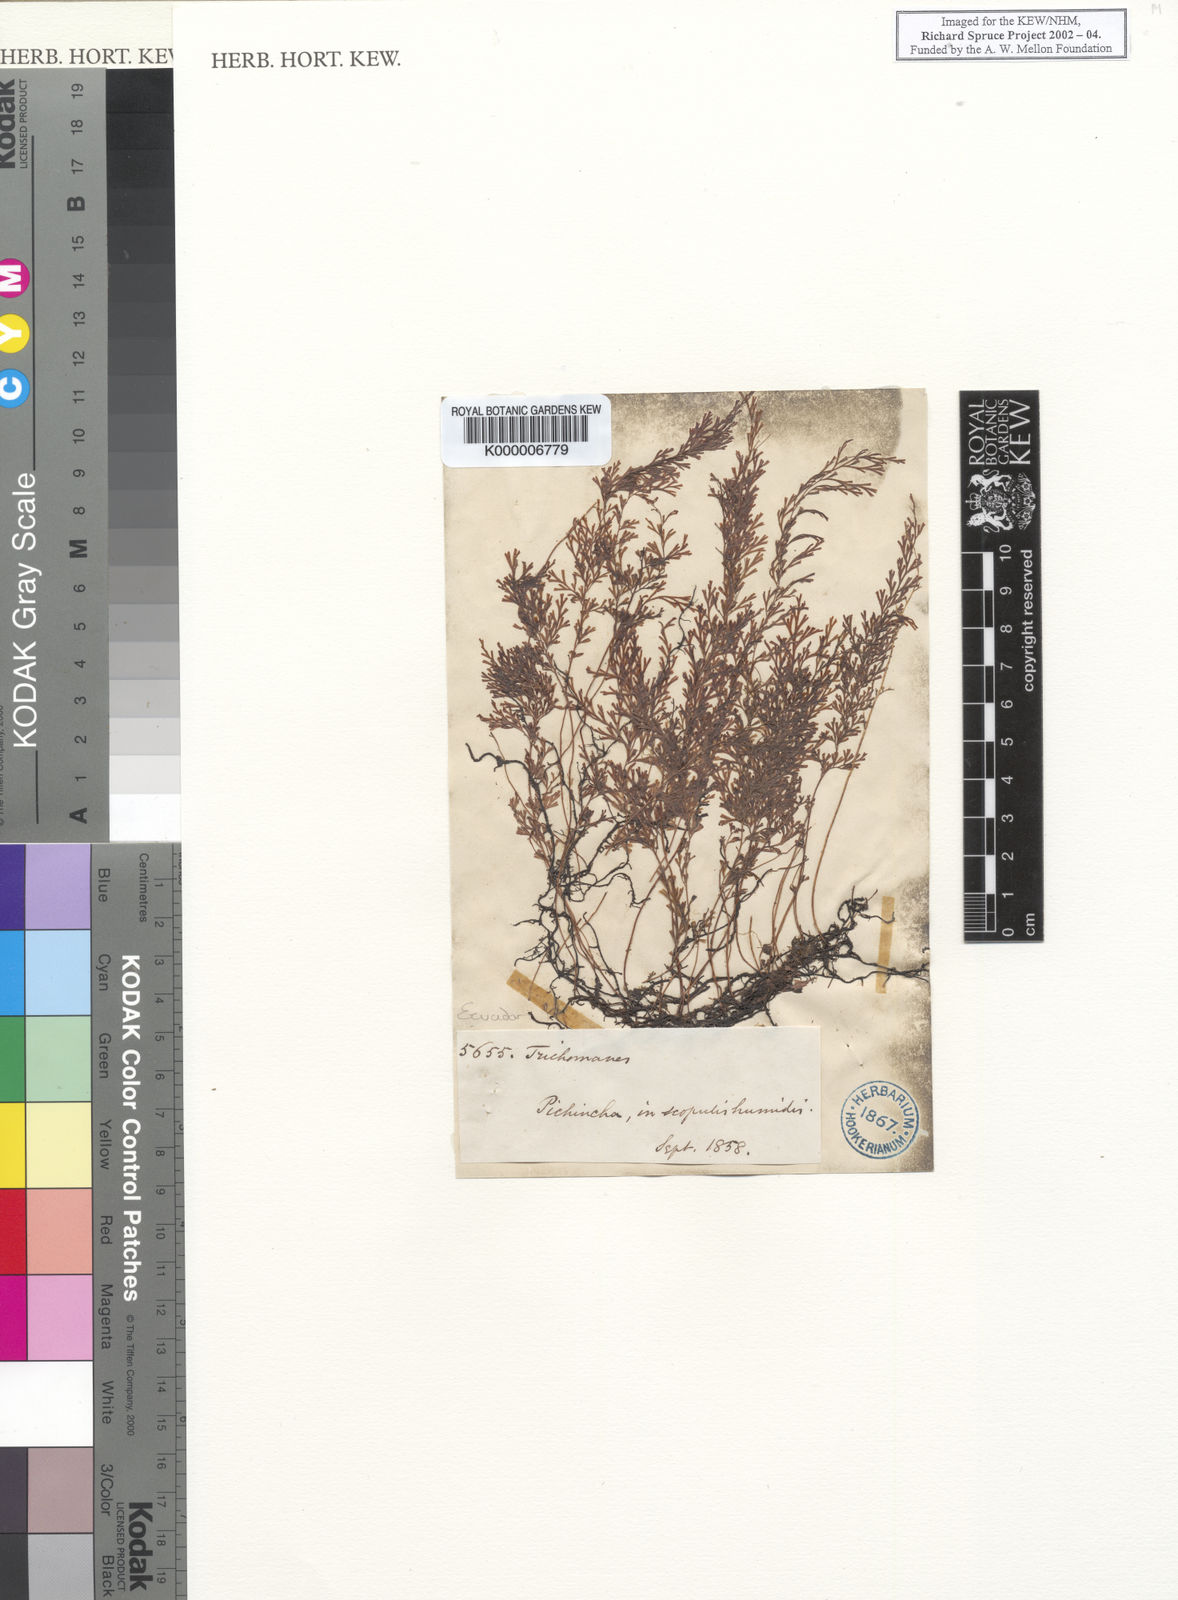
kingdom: Plantae
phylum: Tracheophyta
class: Polypodiopsida
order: Hymenophyllales
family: Hymenophyllaceae
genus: Trichomanes
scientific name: Trichomanes
